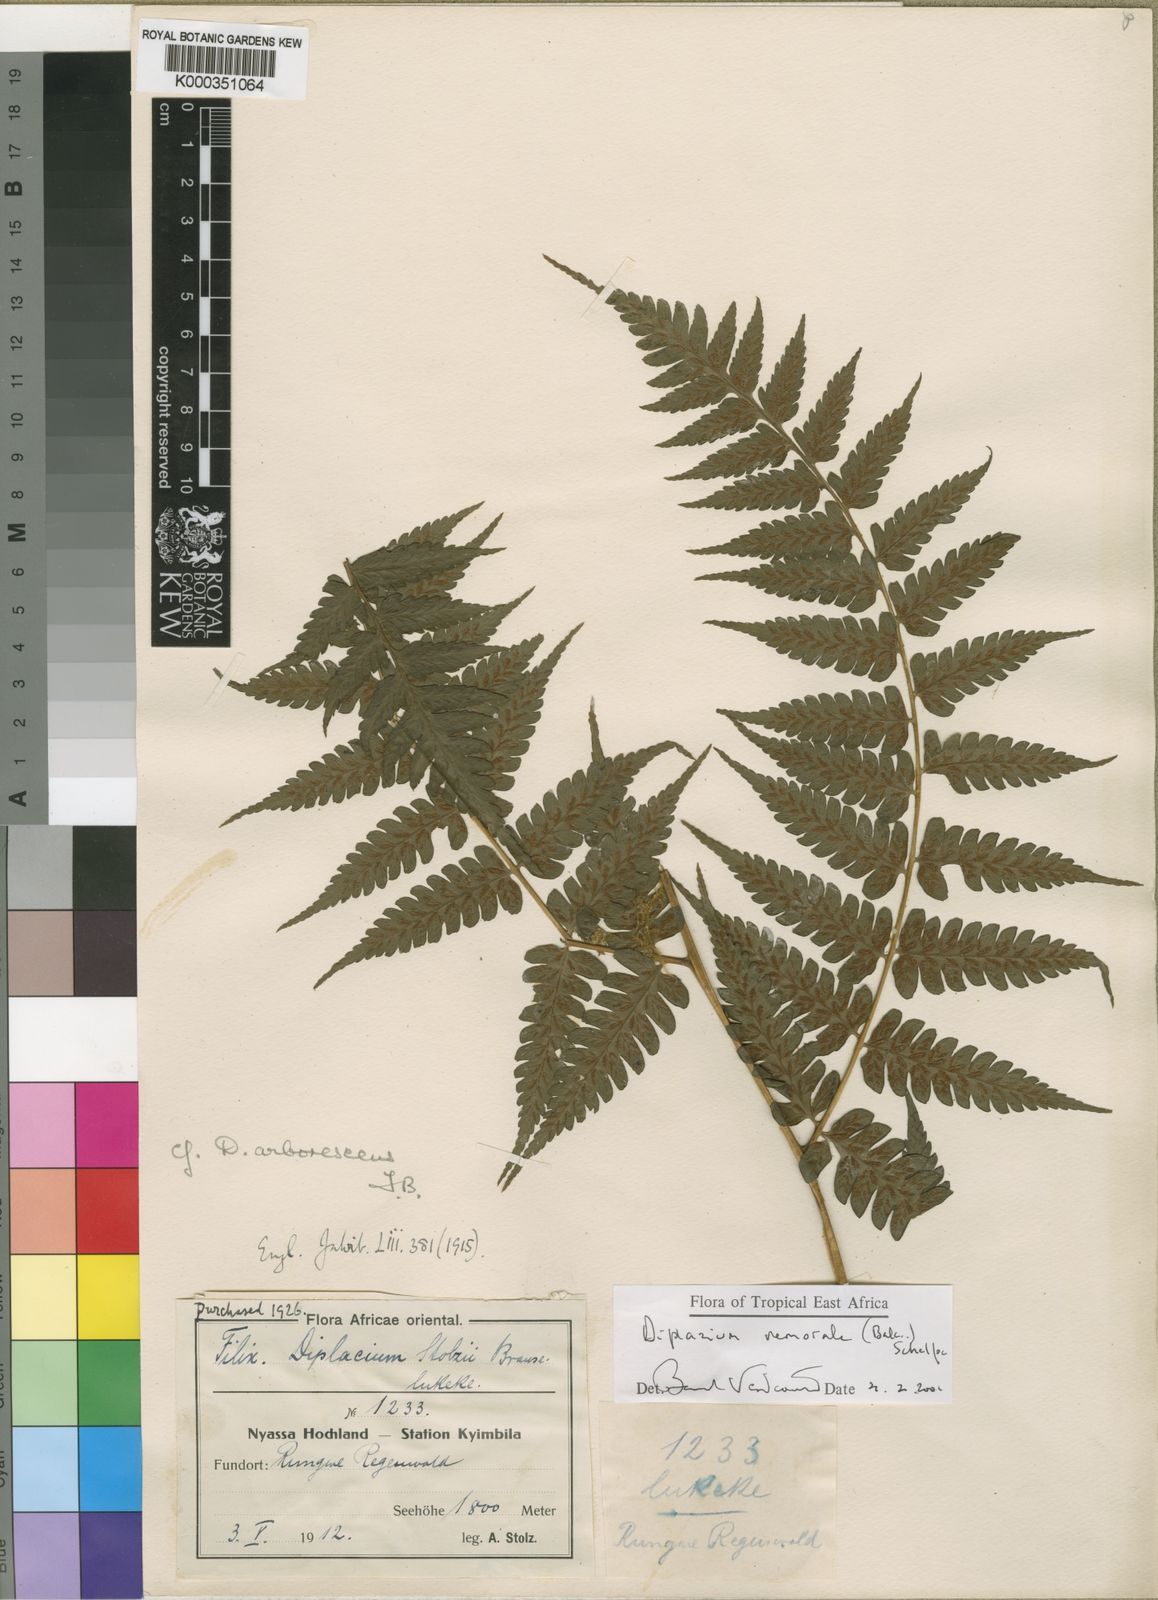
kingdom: Plantae
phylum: Tracheophyta
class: Polypodiopsida
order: Polypodiales
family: Athyriaceae
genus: Diplazium
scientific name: Diplazium nemorale
